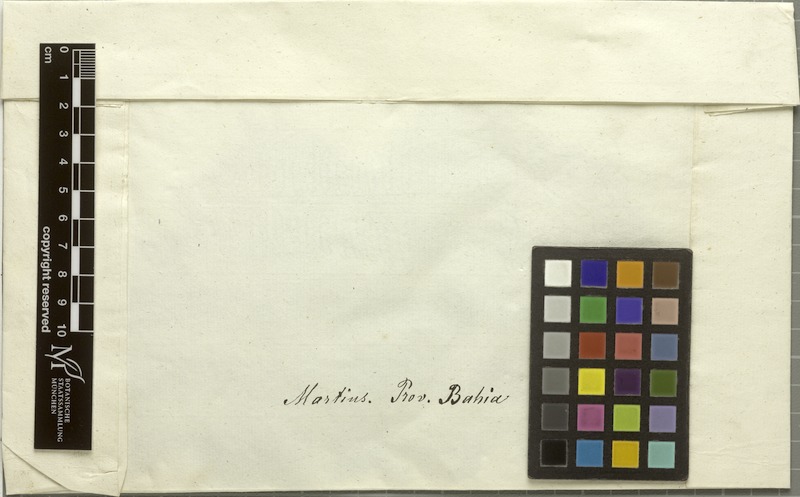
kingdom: Plantae
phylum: Tracheophyta
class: Magnoliopsida
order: Fabales
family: Fabaceae
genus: Dioclea
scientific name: Dioclea virgata
